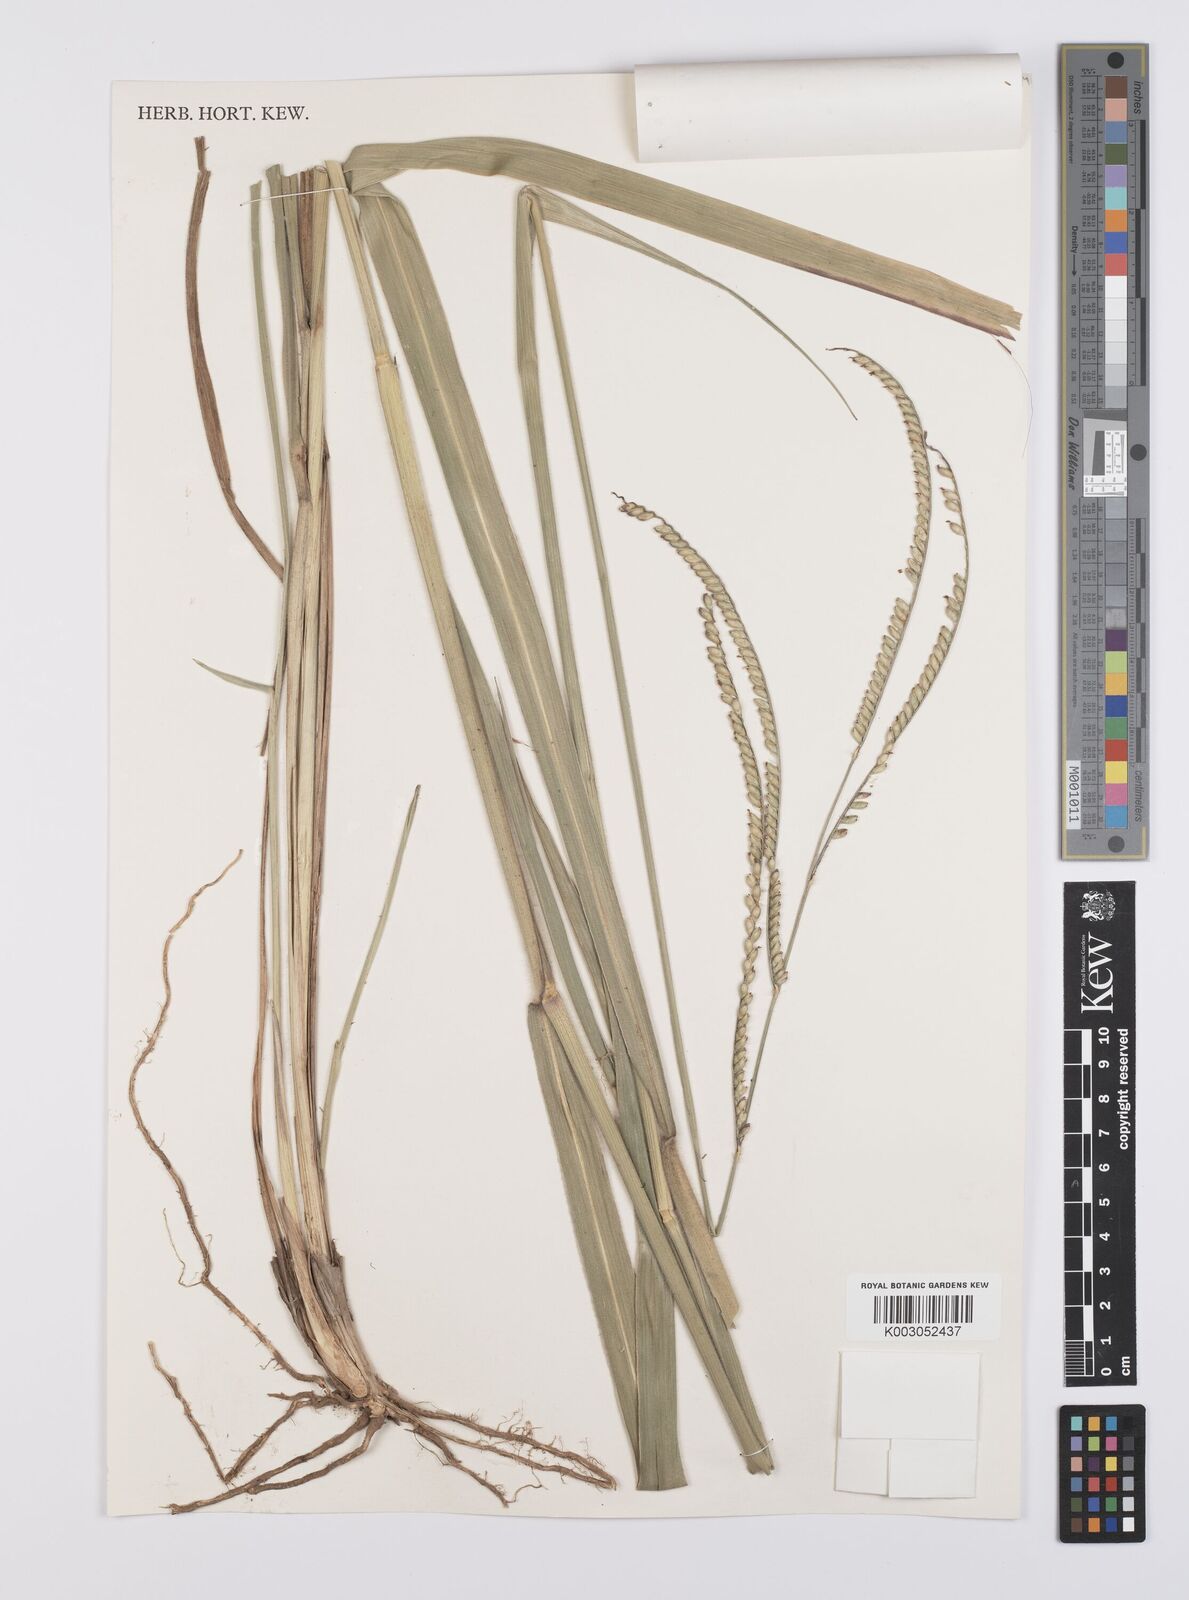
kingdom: Plantae
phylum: Tracheophyta
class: Liliopsida
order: Poales
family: Poaceae
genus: Urochloa
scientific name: Urochloa brizantha
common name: Palisade signalgrass
